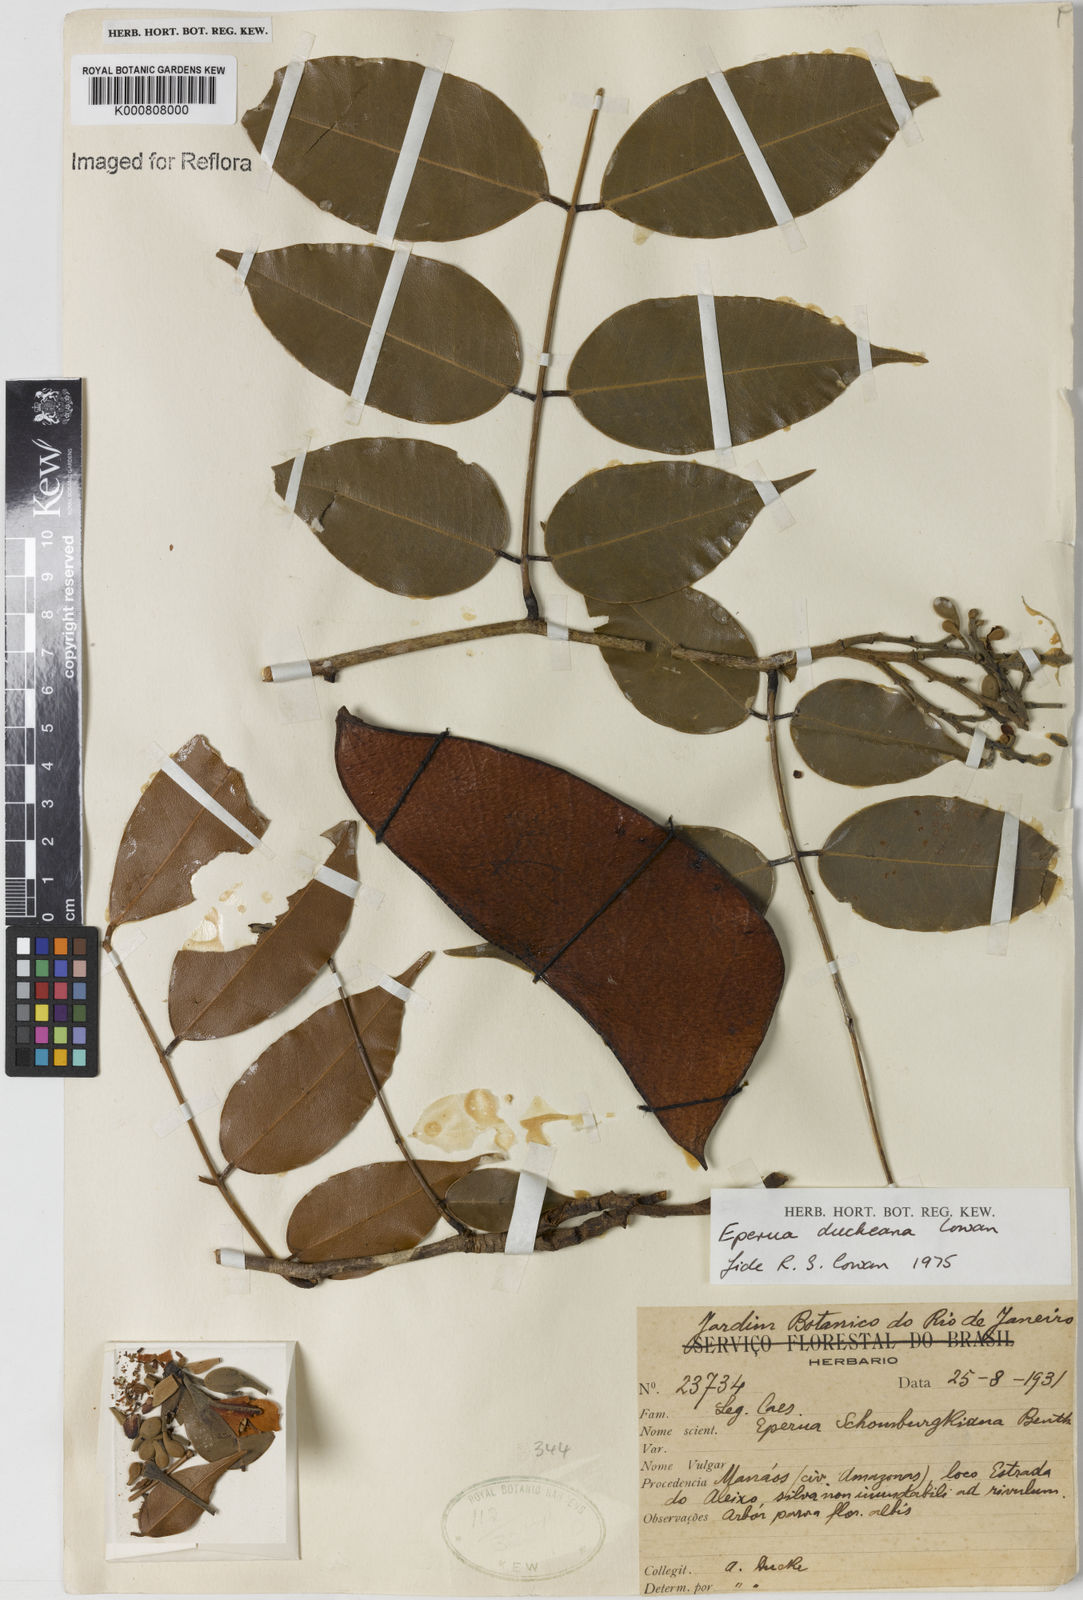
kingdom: Plantae
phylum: Tracheophyta
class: Magnoliopsida
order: Fabales
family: Fabaceae
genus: Eperua
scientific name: Eperua duckeana
